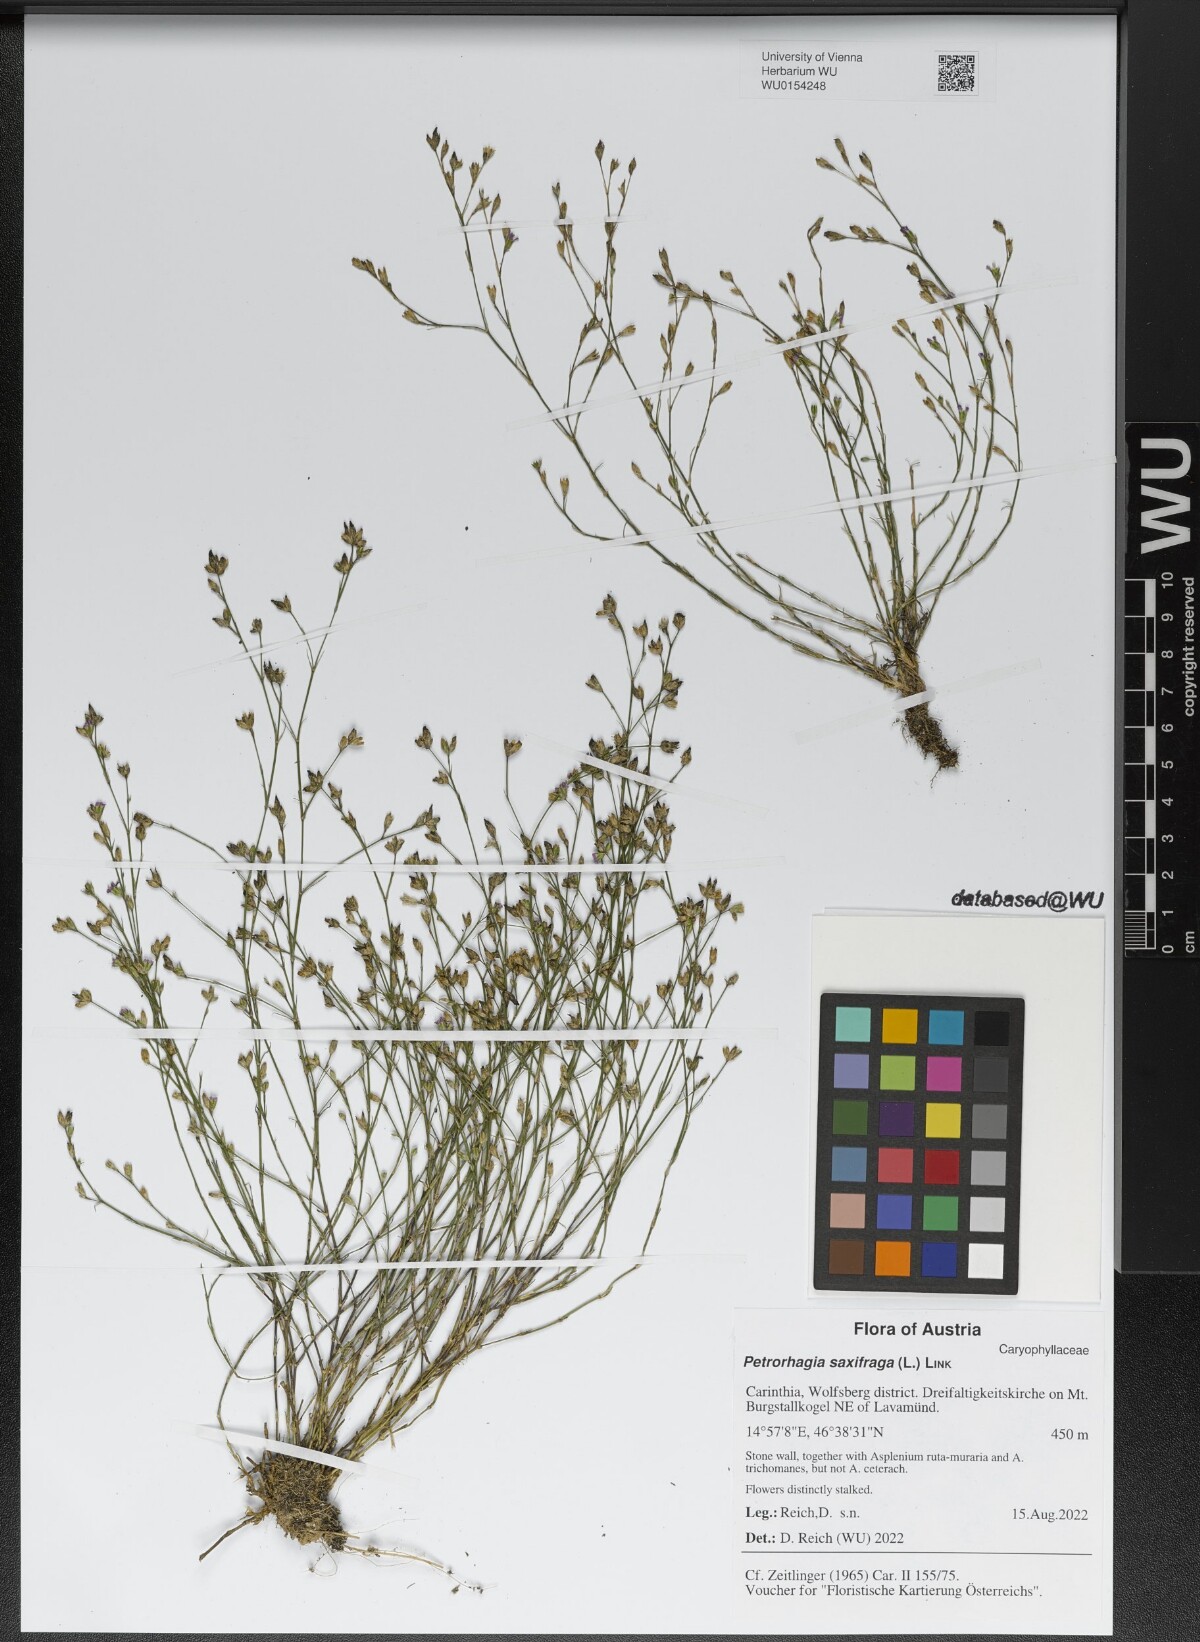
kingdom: Plantae
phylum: Tracheophyta
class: Magnoliopsida
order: Caryophyllales
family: Caryophyllaceae
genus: Petrorhagia
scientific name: Petrorhagia saxifraga
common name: Tunicflower
